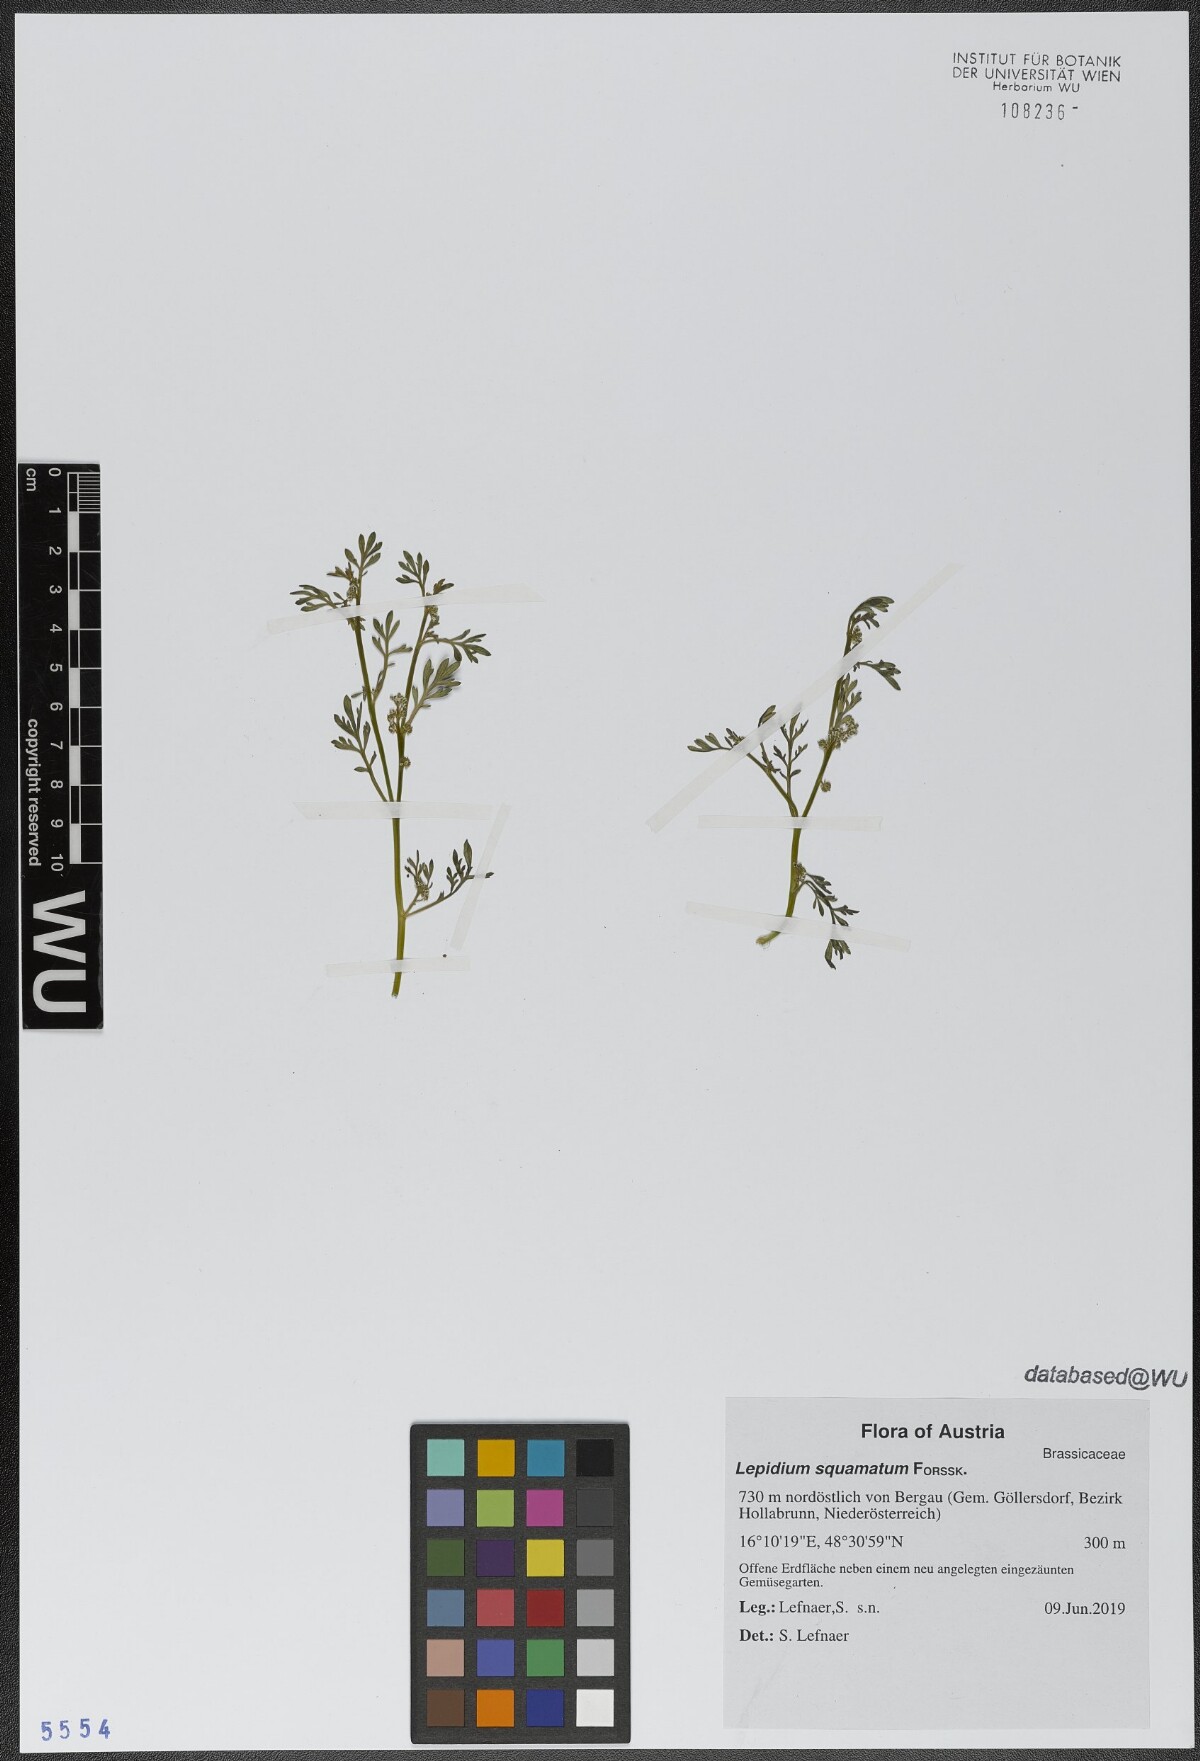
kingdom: Plantae
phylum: Tracheophyta
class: Magnoliopsida
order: Brassicales
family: Brassicaceae
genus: Lepidium
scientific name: Lepidium coronopus
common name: Greater swinecress
